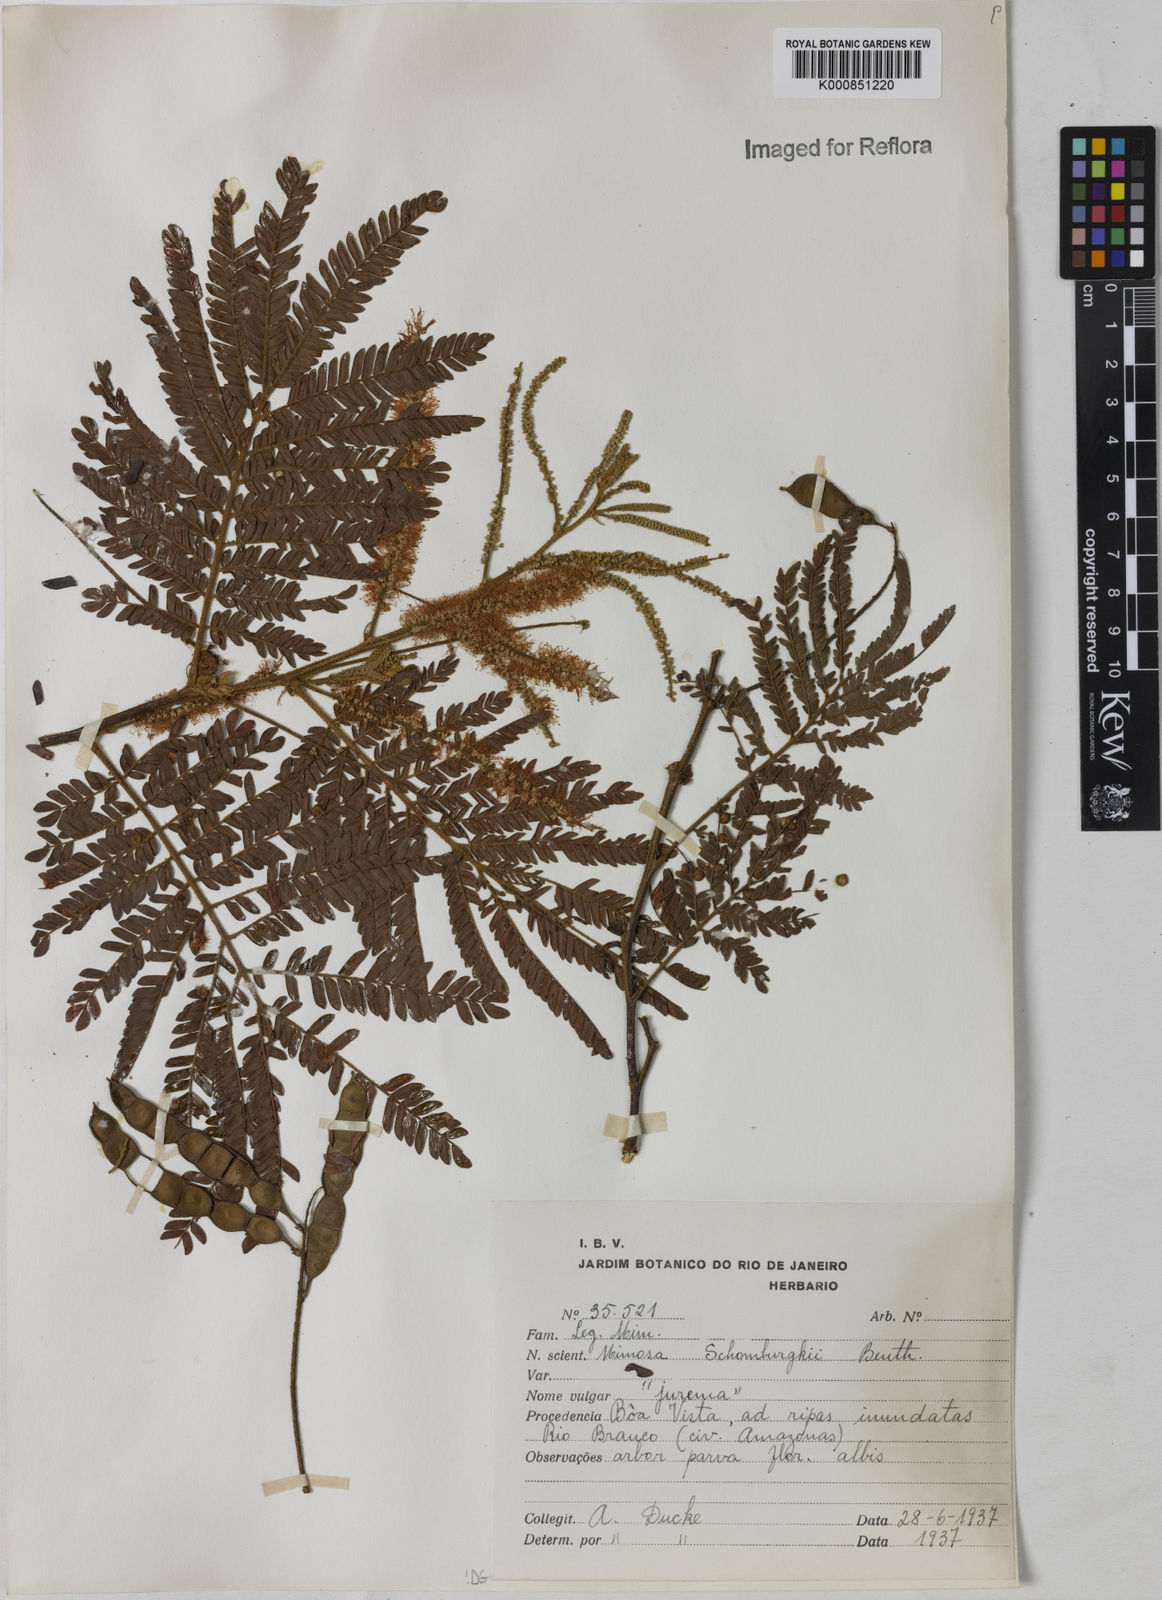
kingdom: Plantae
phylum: Tracheophyta
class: Magnoliopsida
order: Fabales
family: Fabaceae
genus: Mimosa
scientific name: Mimosa schomburgkii
